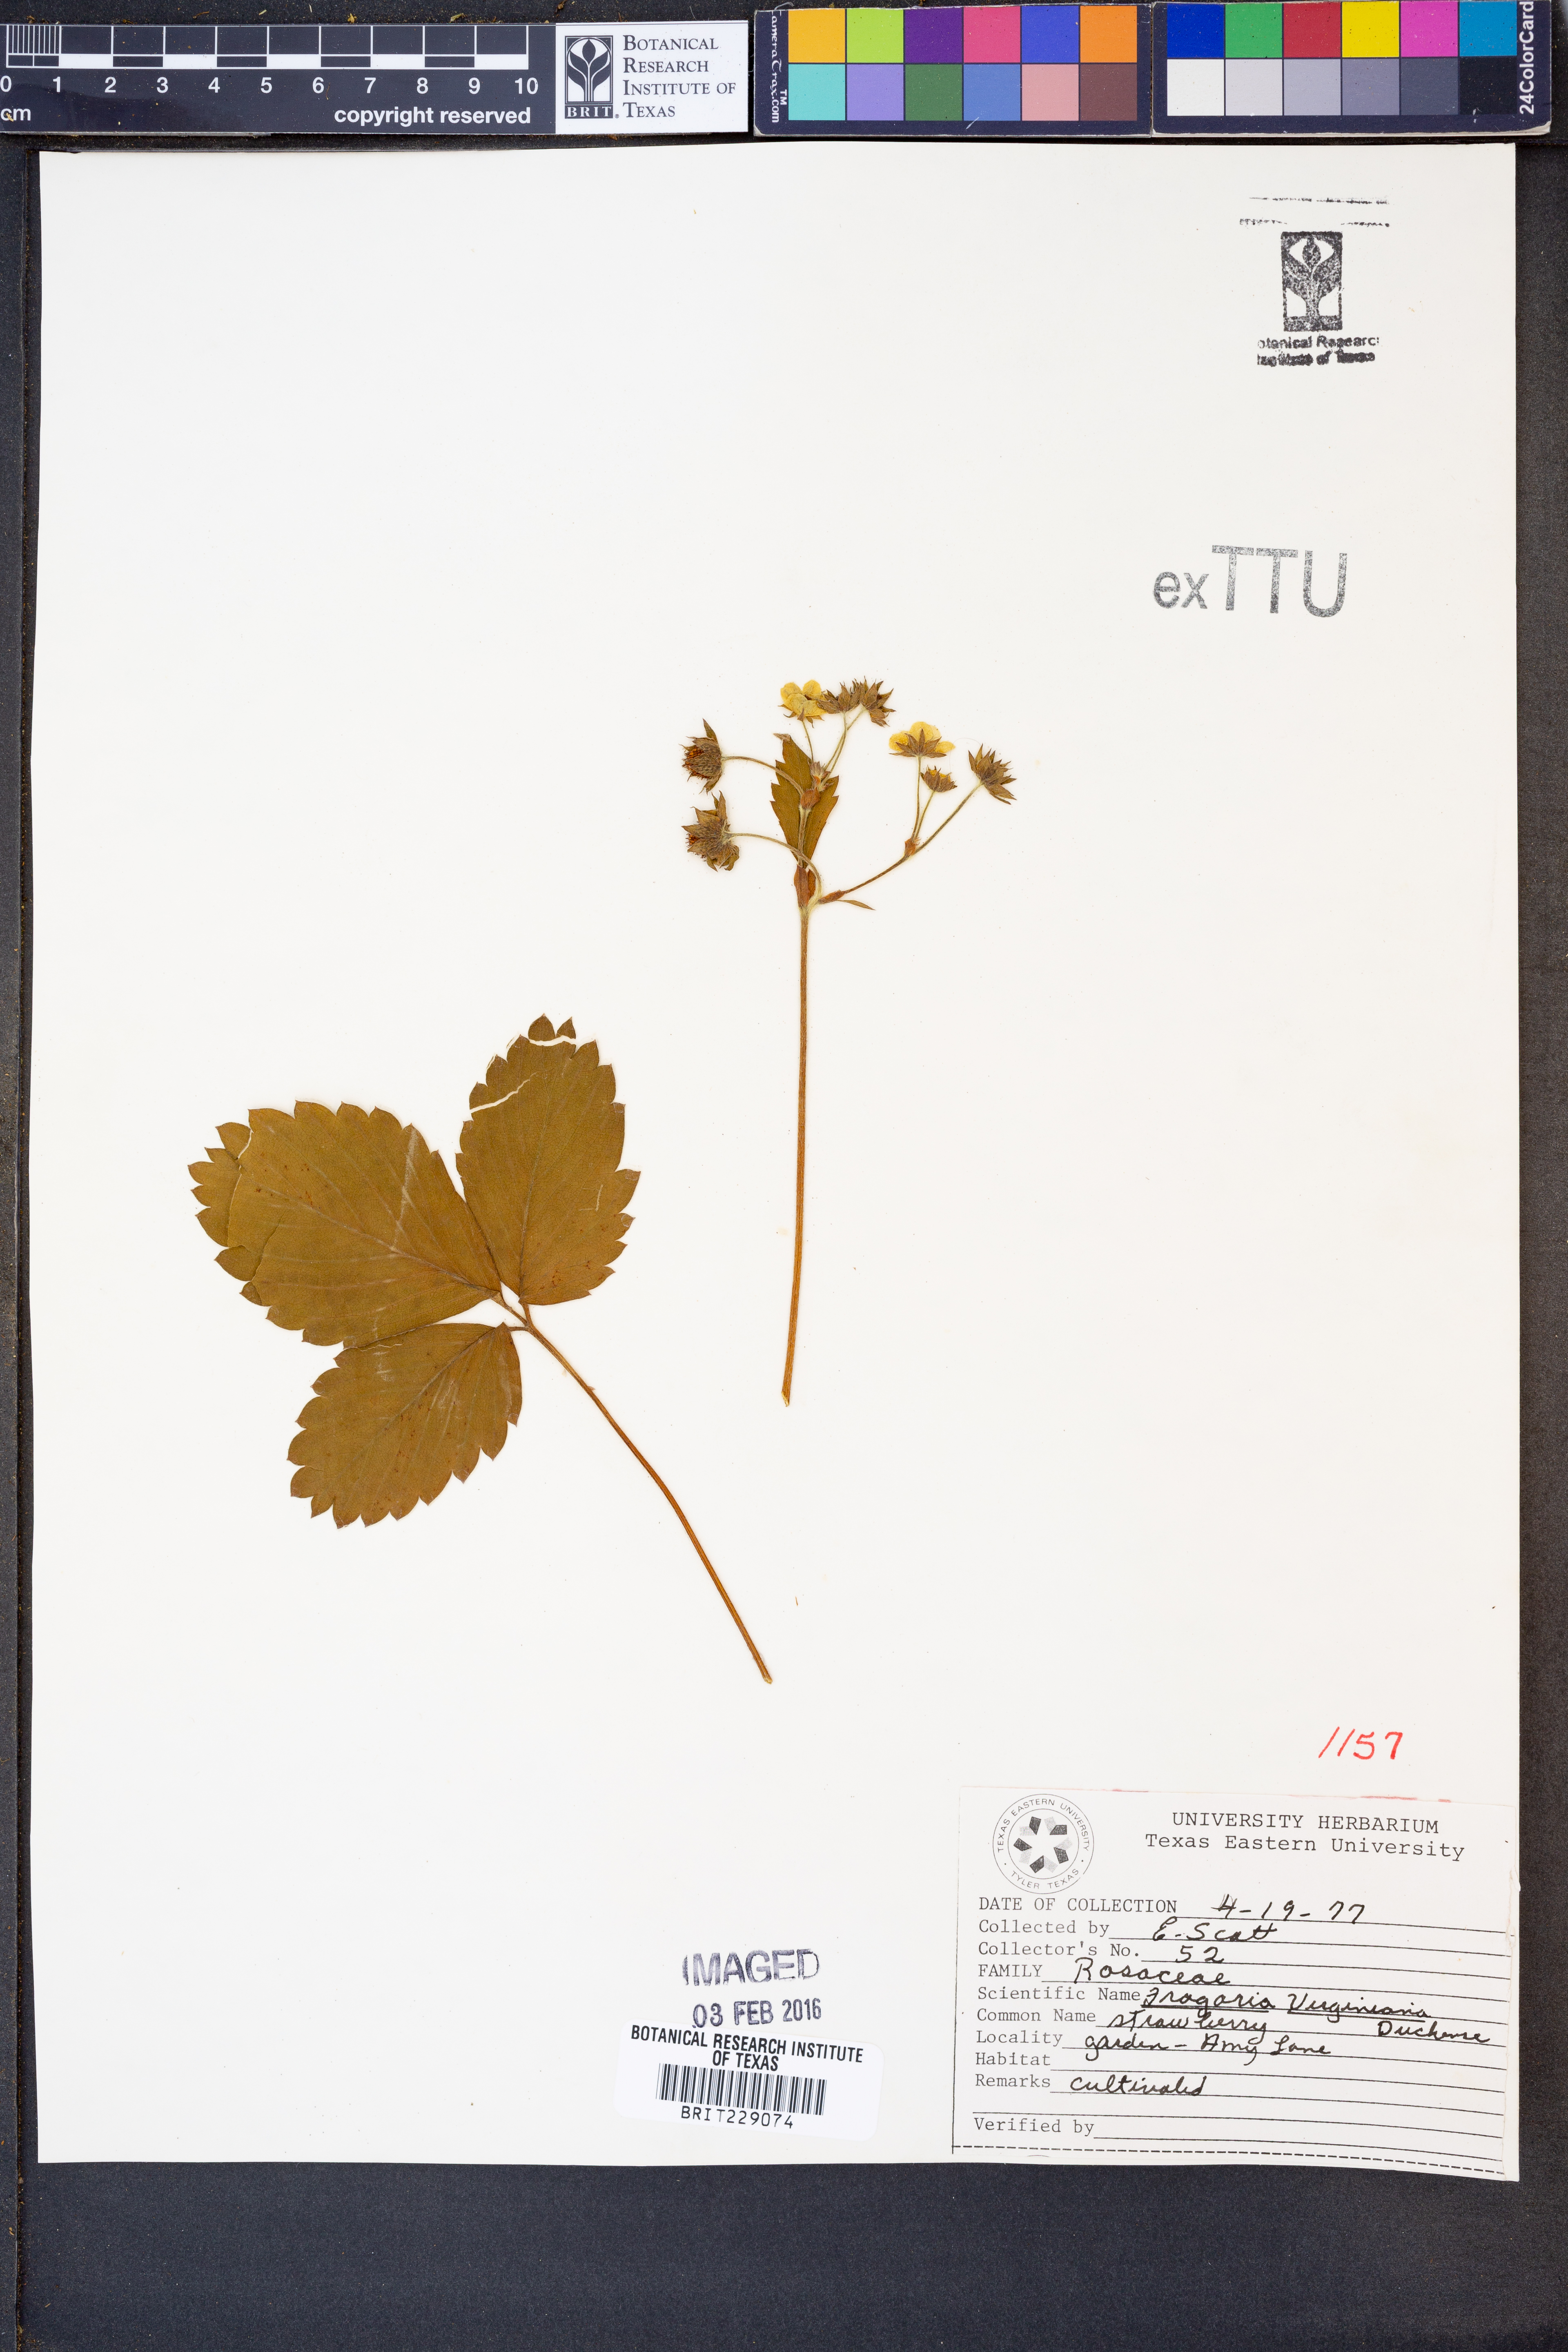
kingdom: Plantae
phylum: Tracheophyta
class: Magnoliopsida
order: Rosales
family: Rosaceae
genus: Fragaria
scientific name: Fragaria virginiana
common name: Thickleaved wild strawberry
